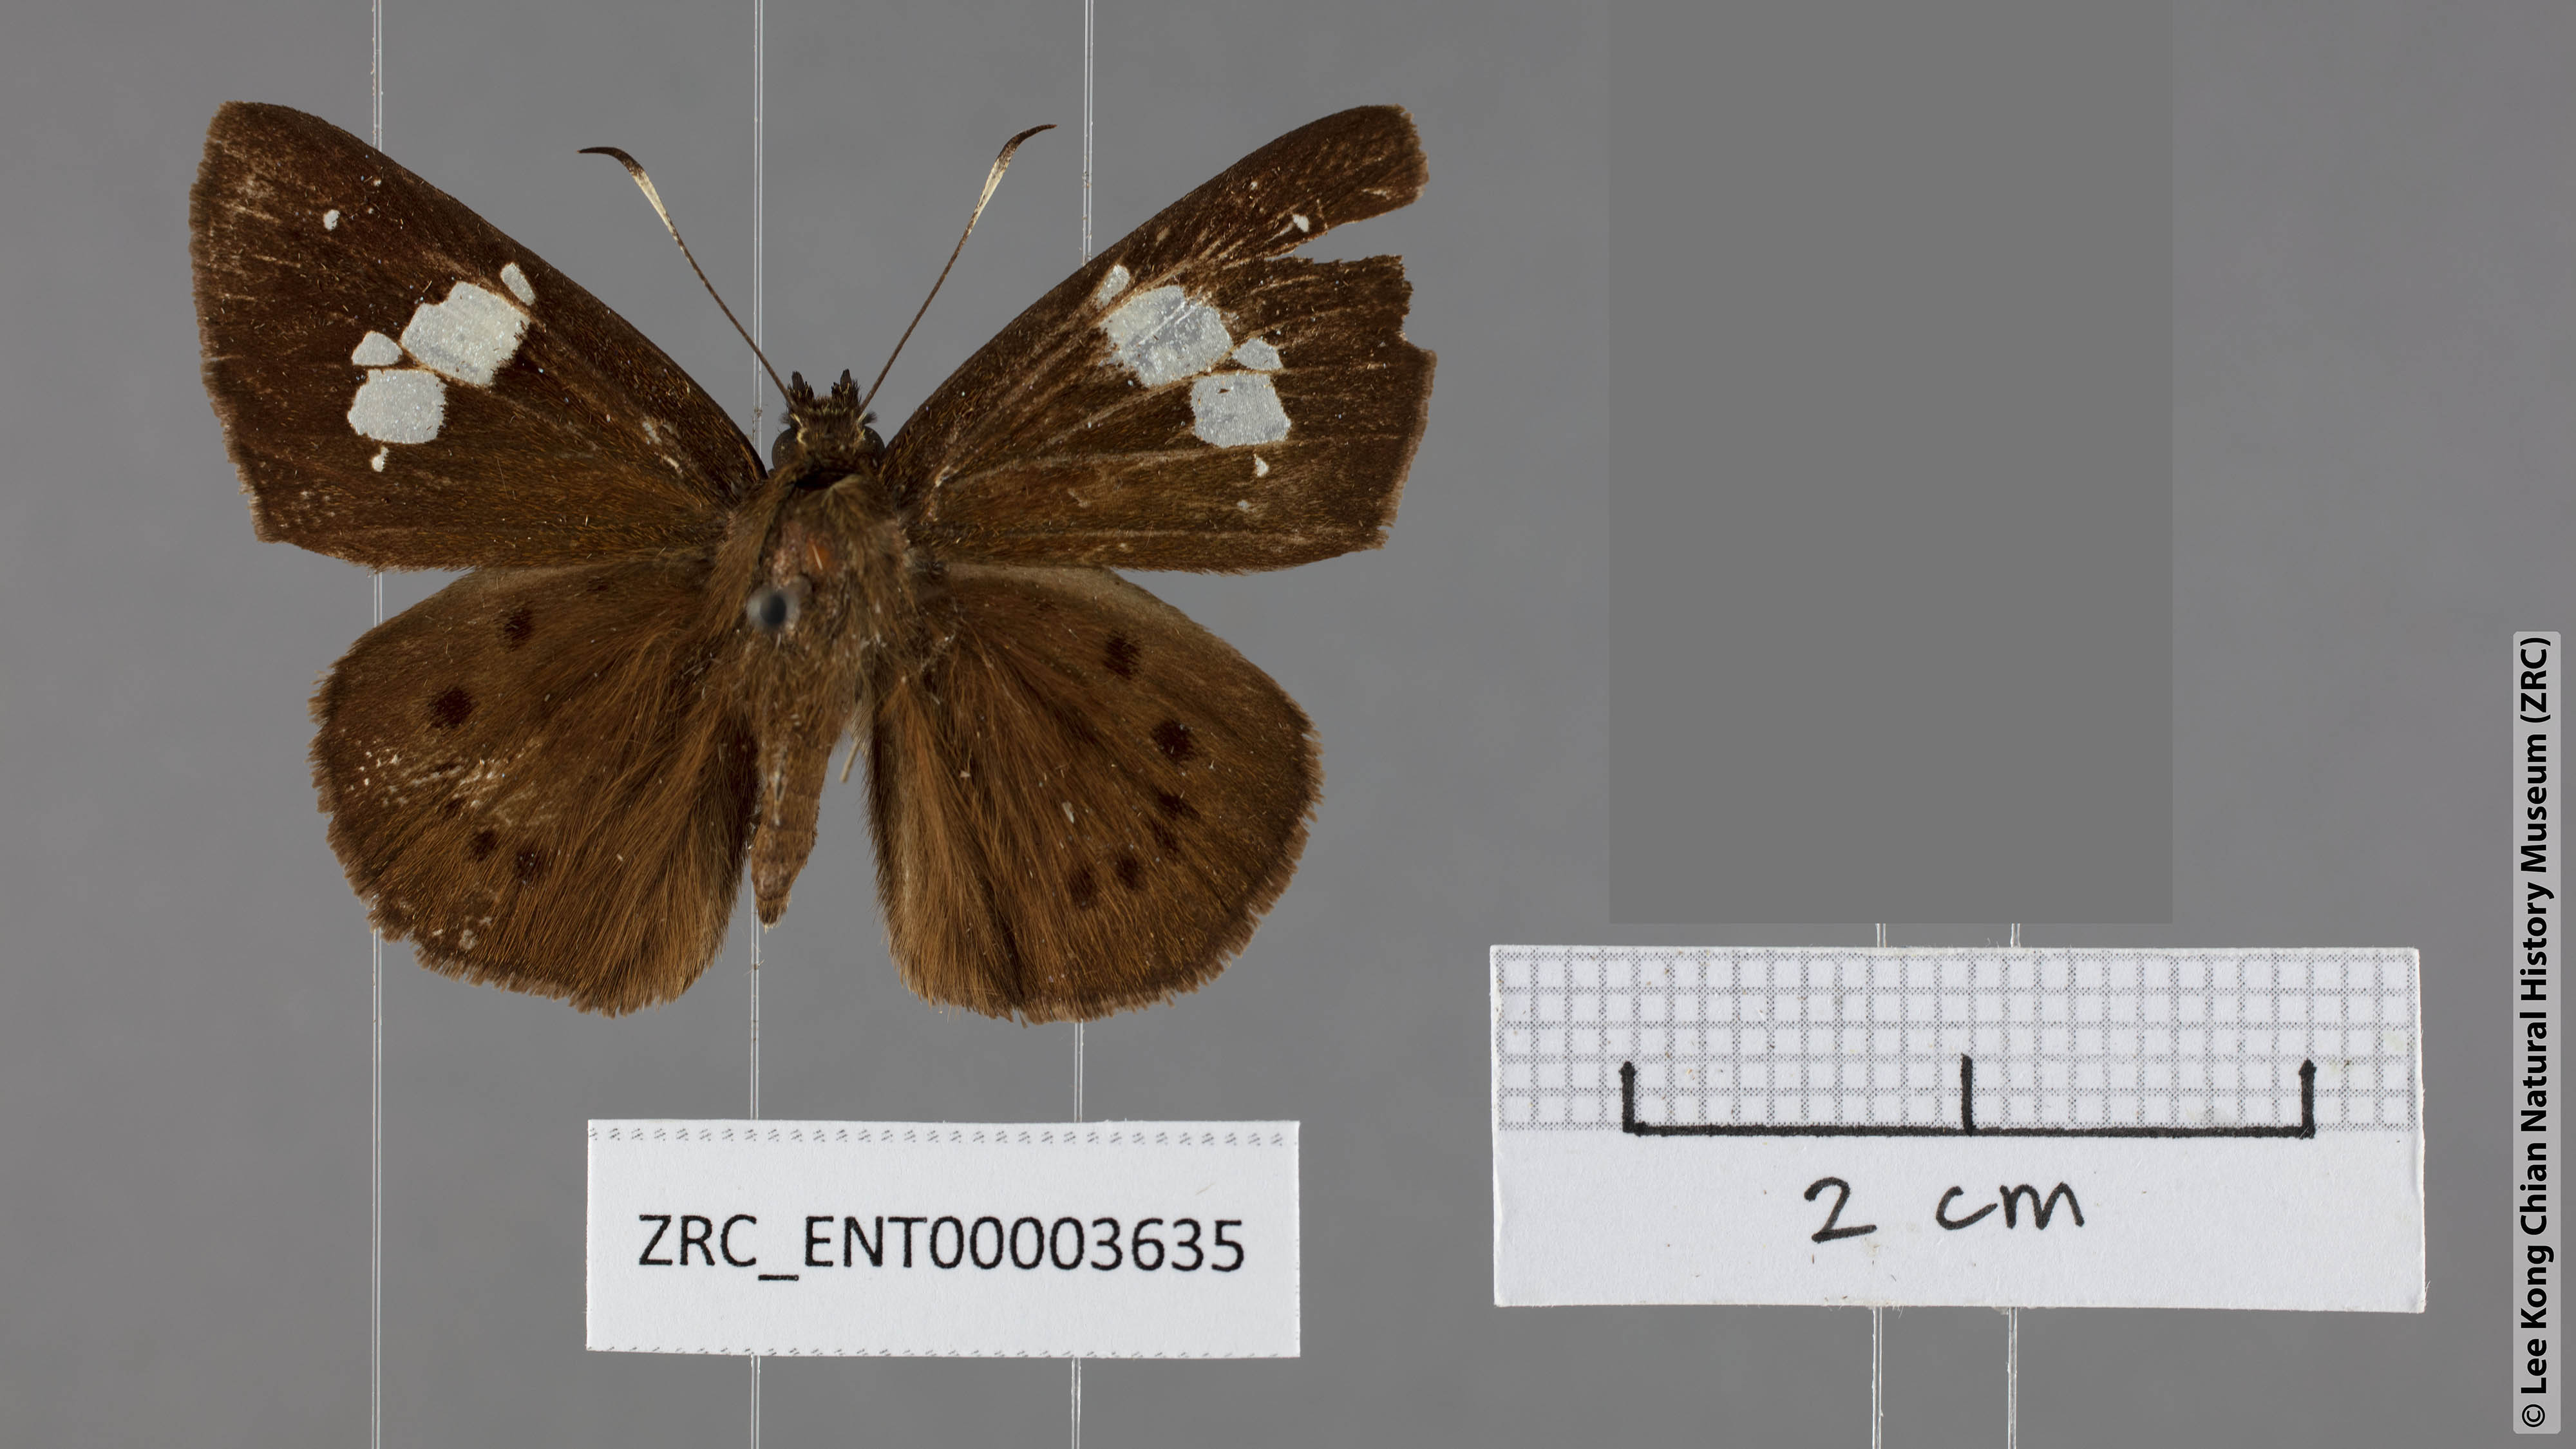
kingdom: Animalia
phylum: Arthropoda
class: Insecta
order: Lepidoptera
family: Hesperiidae
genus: Coladenia
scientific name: Coladenia agnioides
